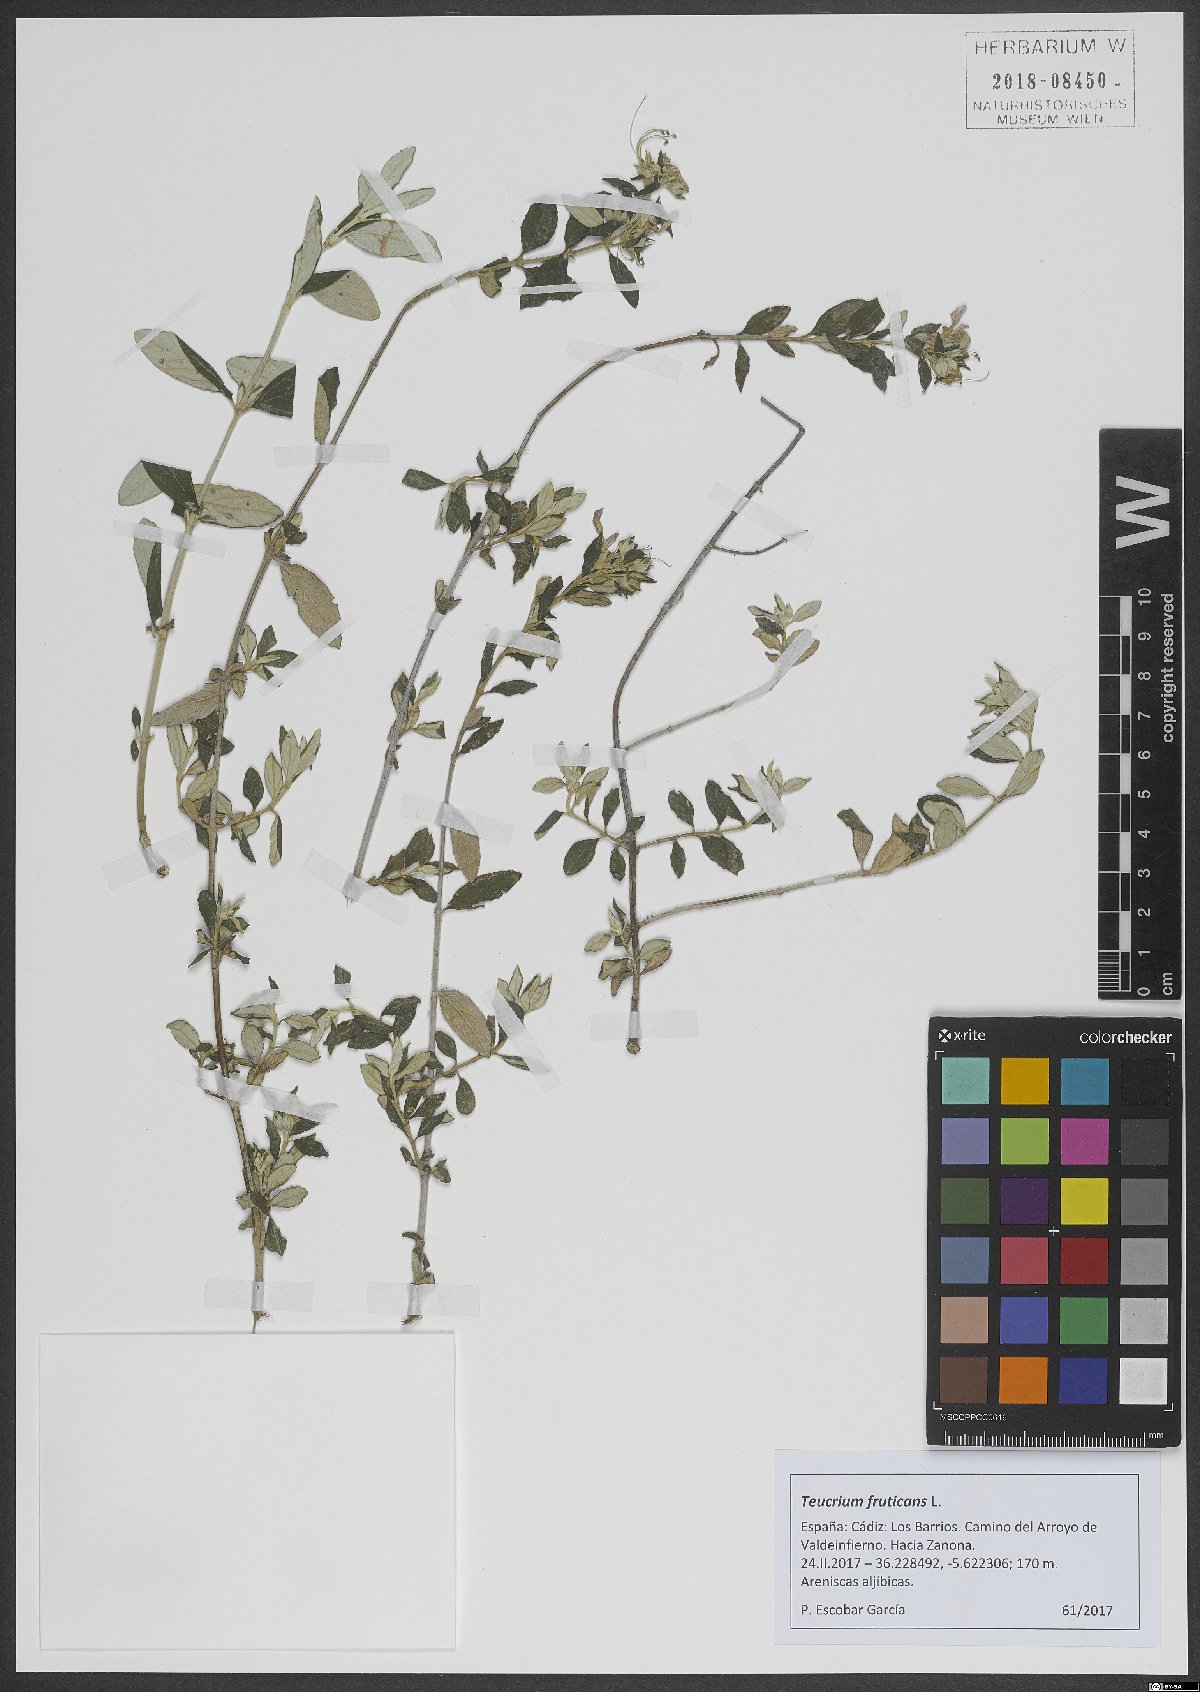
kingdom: Plantae
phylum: Tracheophyta
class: Magnoliopsida
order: Lamiales
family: Lamiaceae
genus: Teucrium
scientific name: Teucrium fruticans
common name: Shrubby germander
